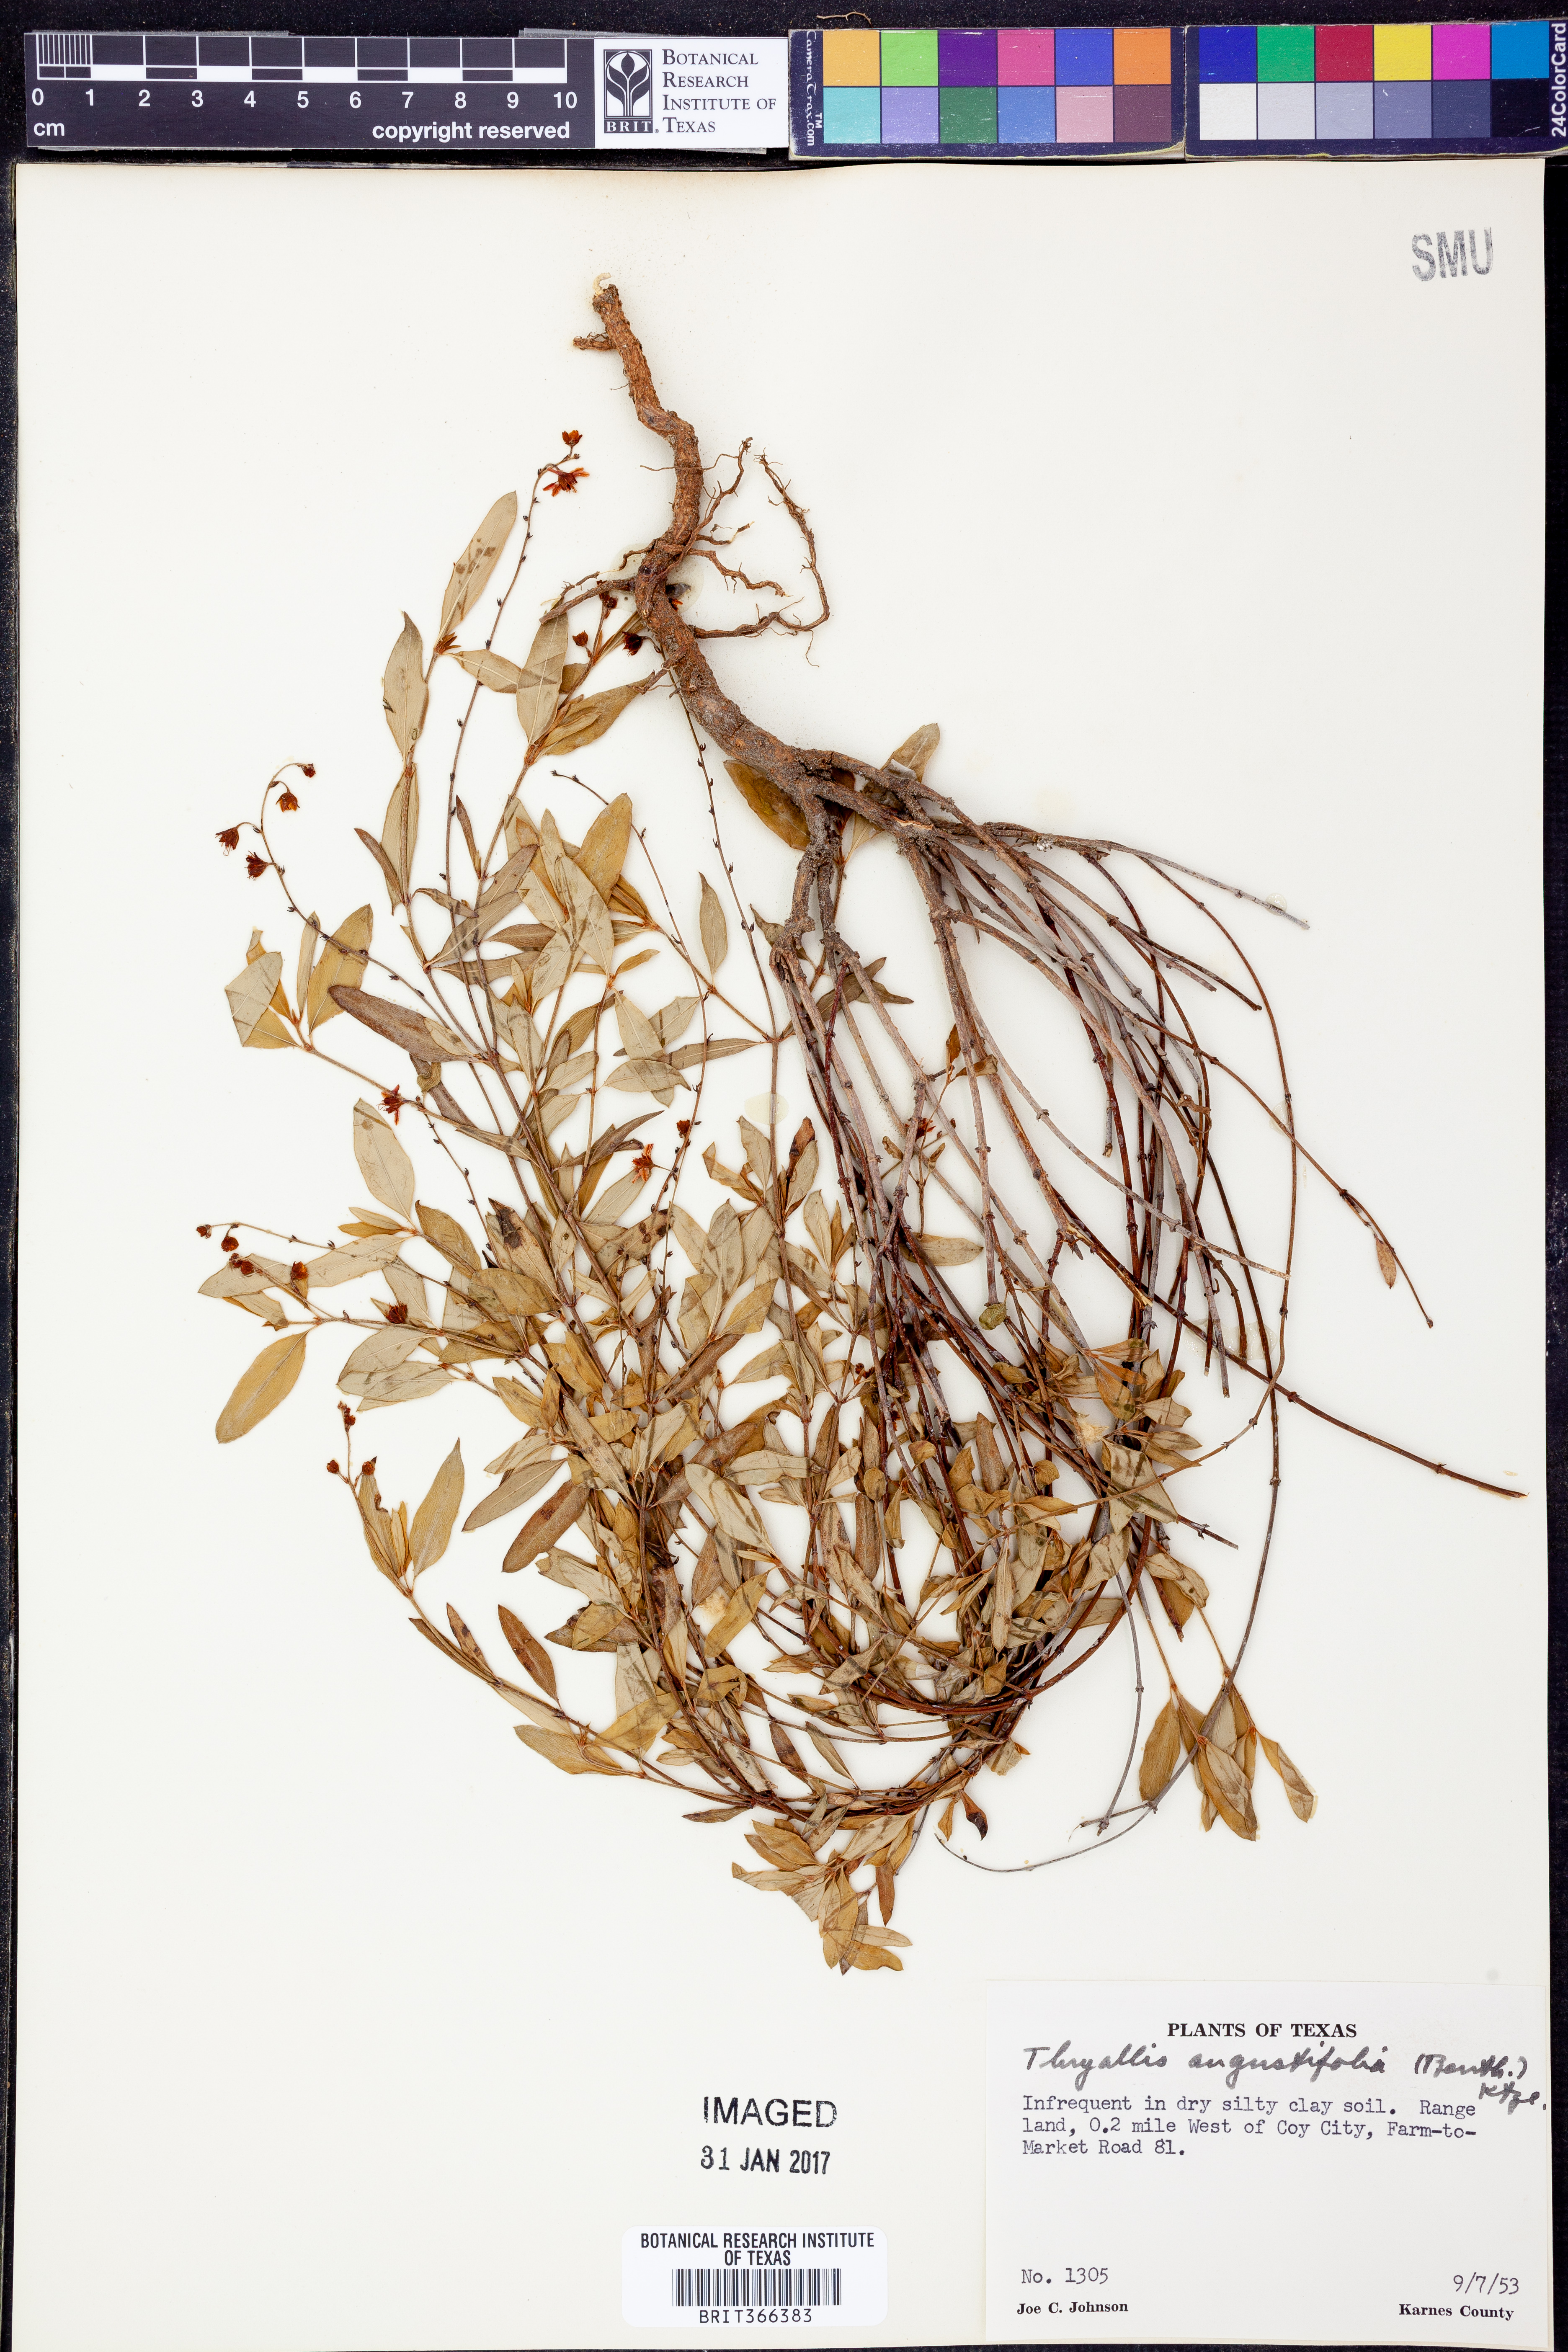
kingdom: Plantae
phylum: Tracheophyta
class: Magnoliopsida
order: Malpighiales
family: Malpighiaceae
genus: Galphimia
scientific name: Galphimia angustifolia
